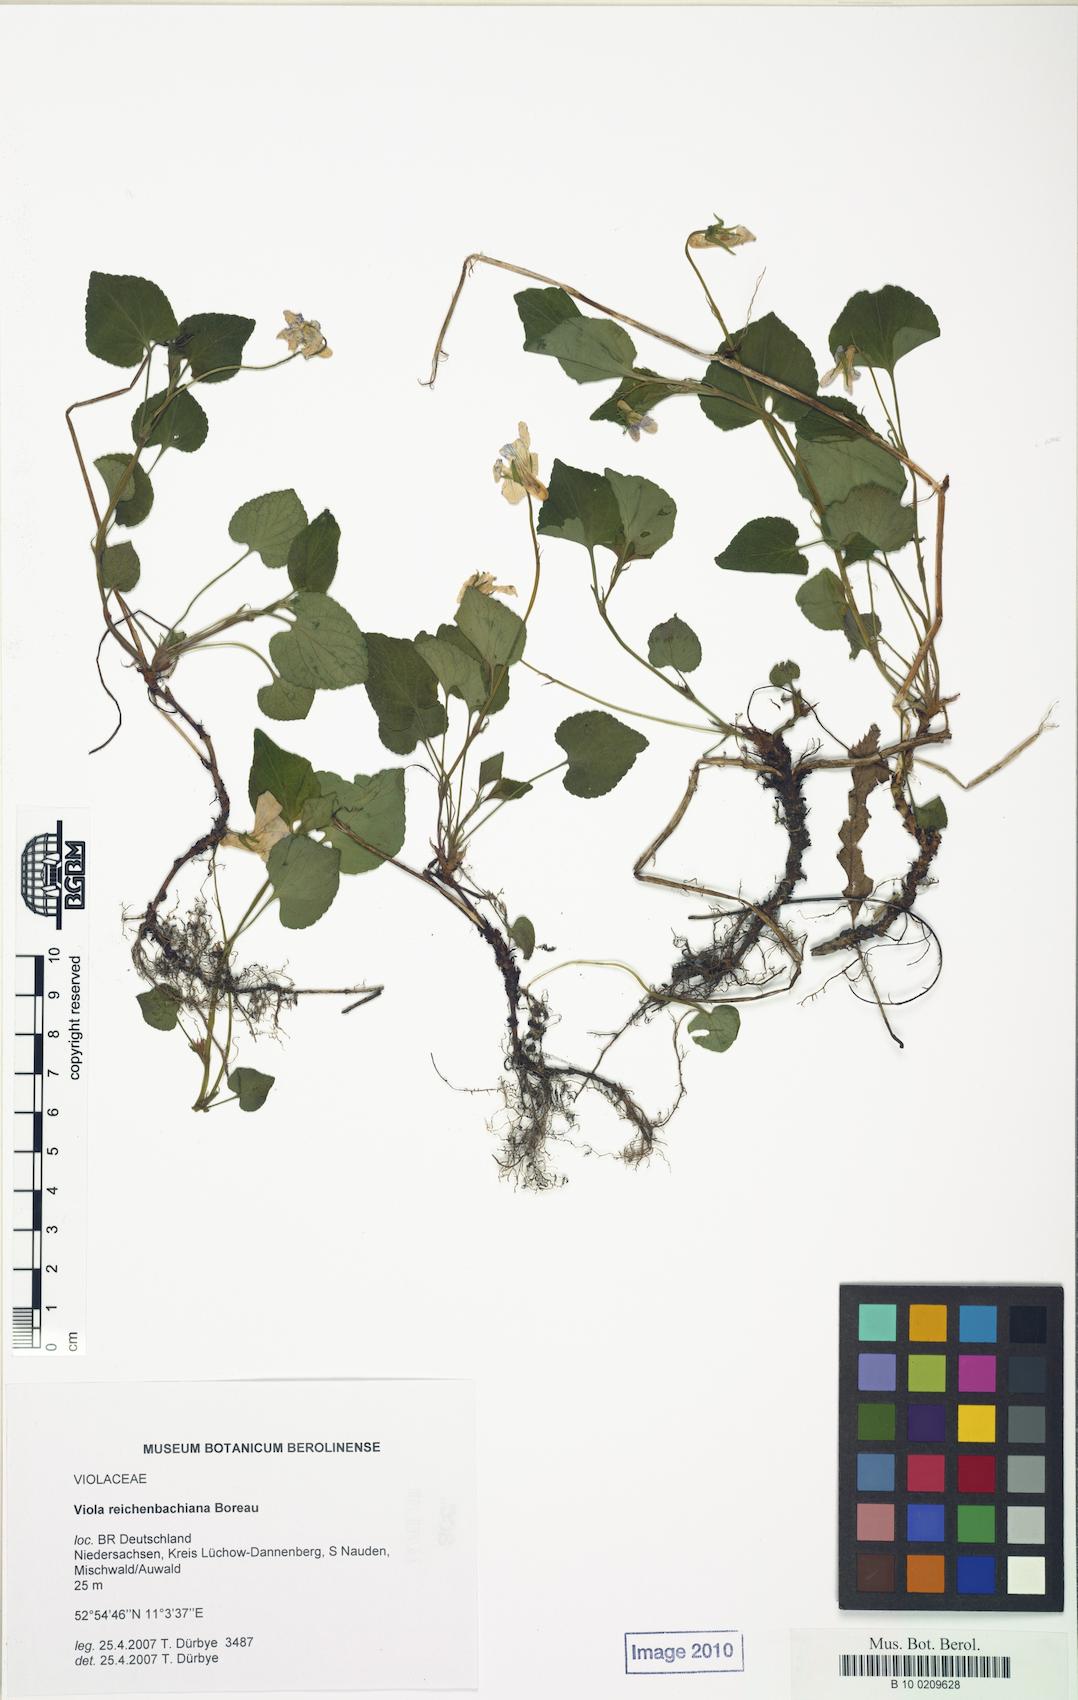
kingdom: Plantae
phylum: Tracheophyta
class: Magnoliopsida
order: Malpighiales
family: Violaceae
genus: Viola
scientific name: Viola reichenbachiana
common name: Early dog-violet
